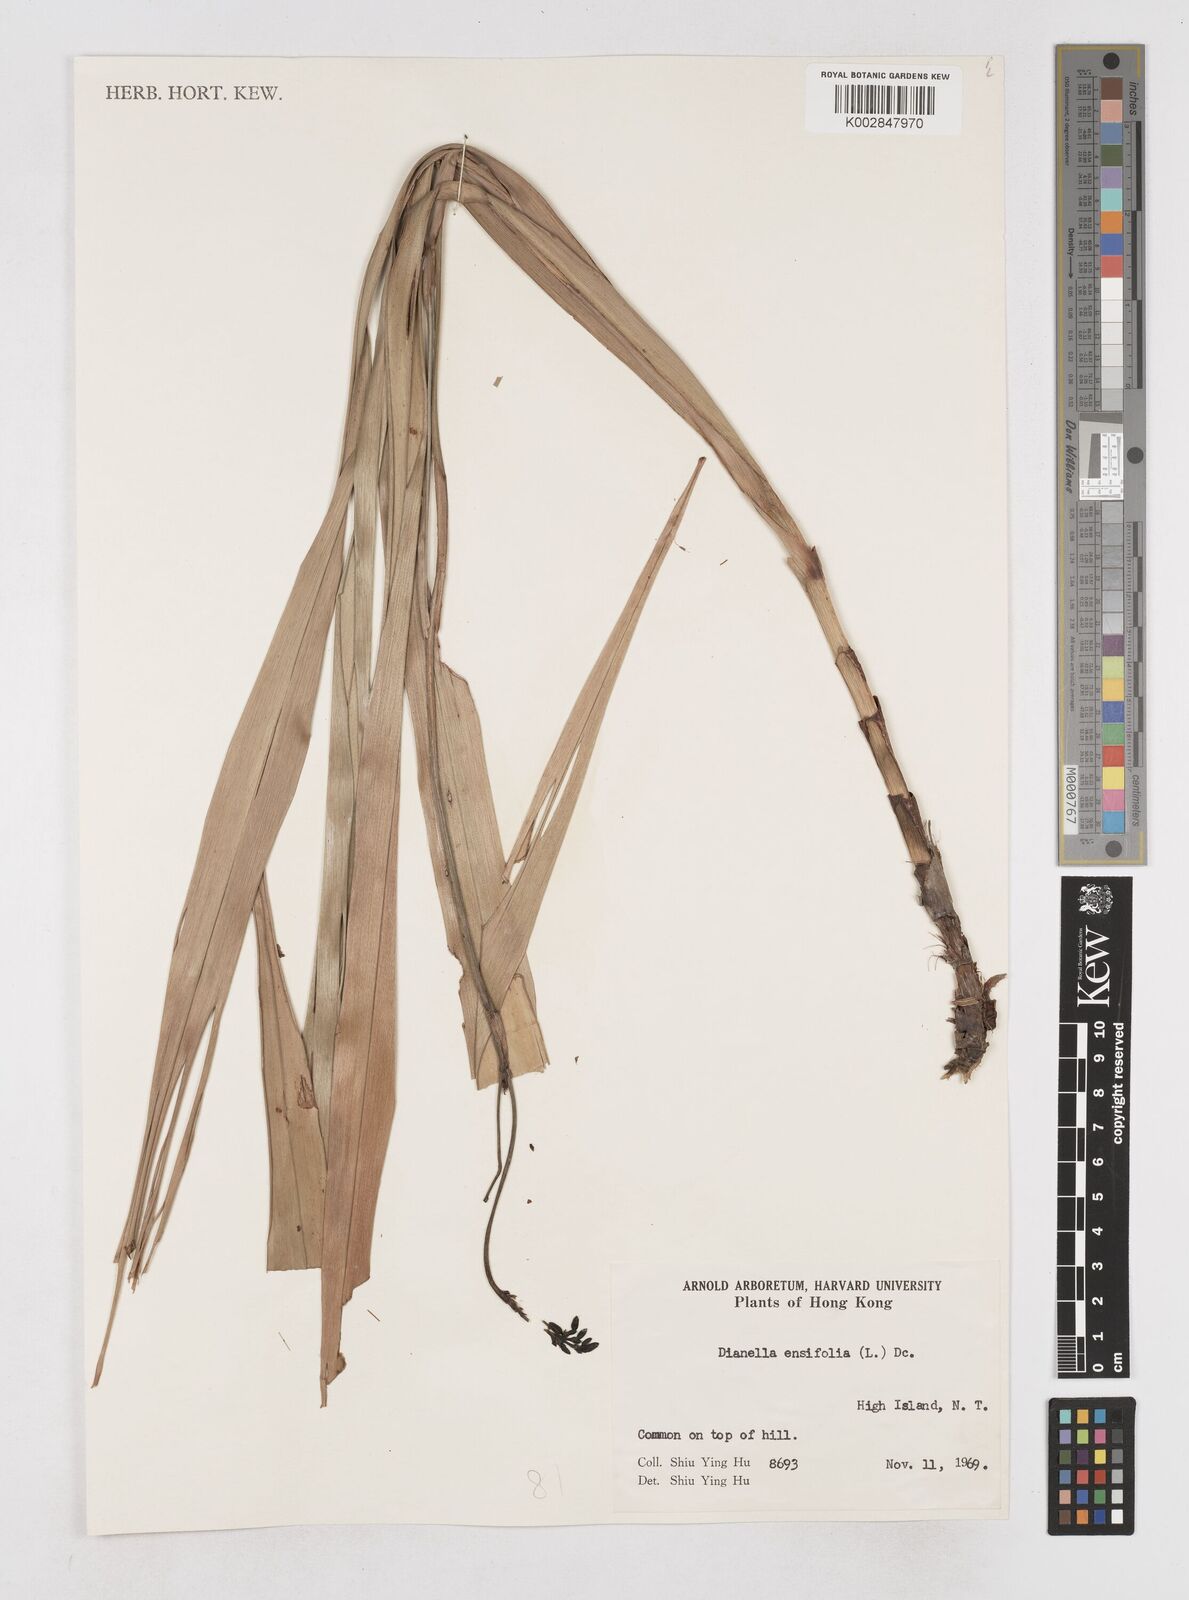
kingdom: Plantae
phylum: Tracheophyta
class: Liliopsida
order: Asparagales
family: Asphodelaceae
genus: Dianella
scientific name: Dianella ensifolia
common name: New zealand lilyplant
